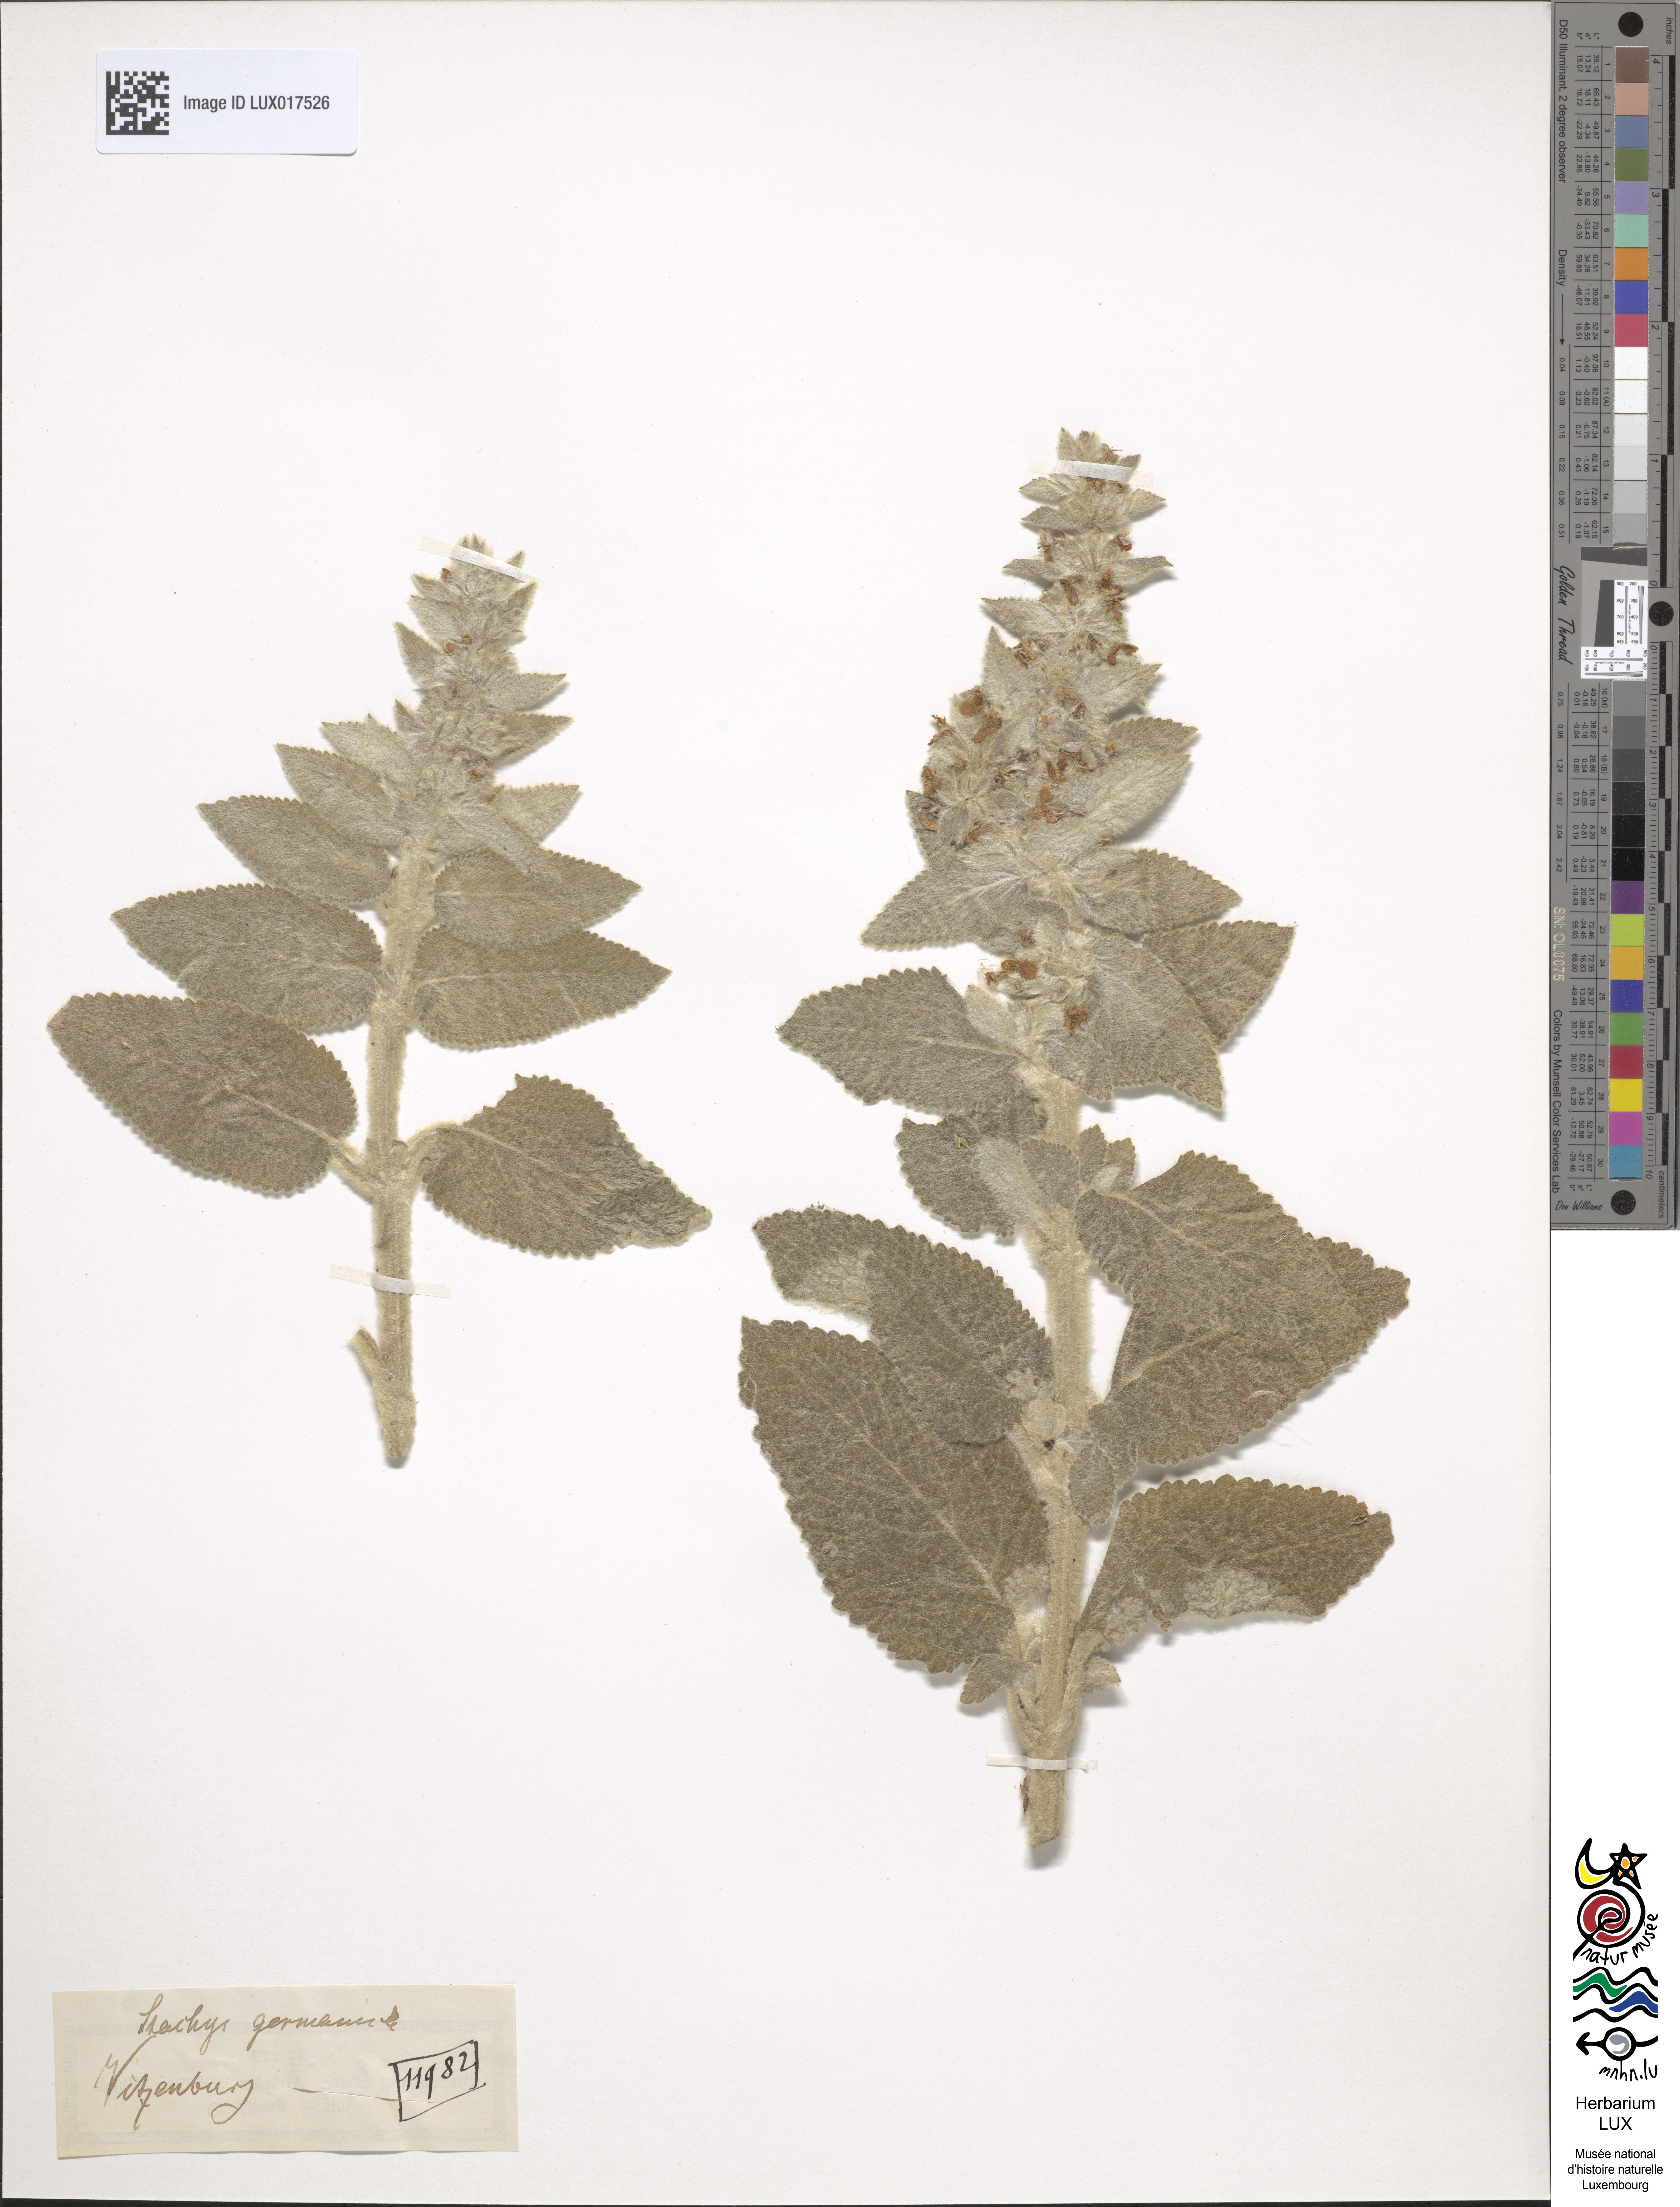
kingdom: Plantae
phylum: Tracheophyta
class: Magnoliopsida
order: Lamiales
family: Lamiaceae
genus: Stachys
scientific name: Stachys germanica
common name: Downy woundwort
